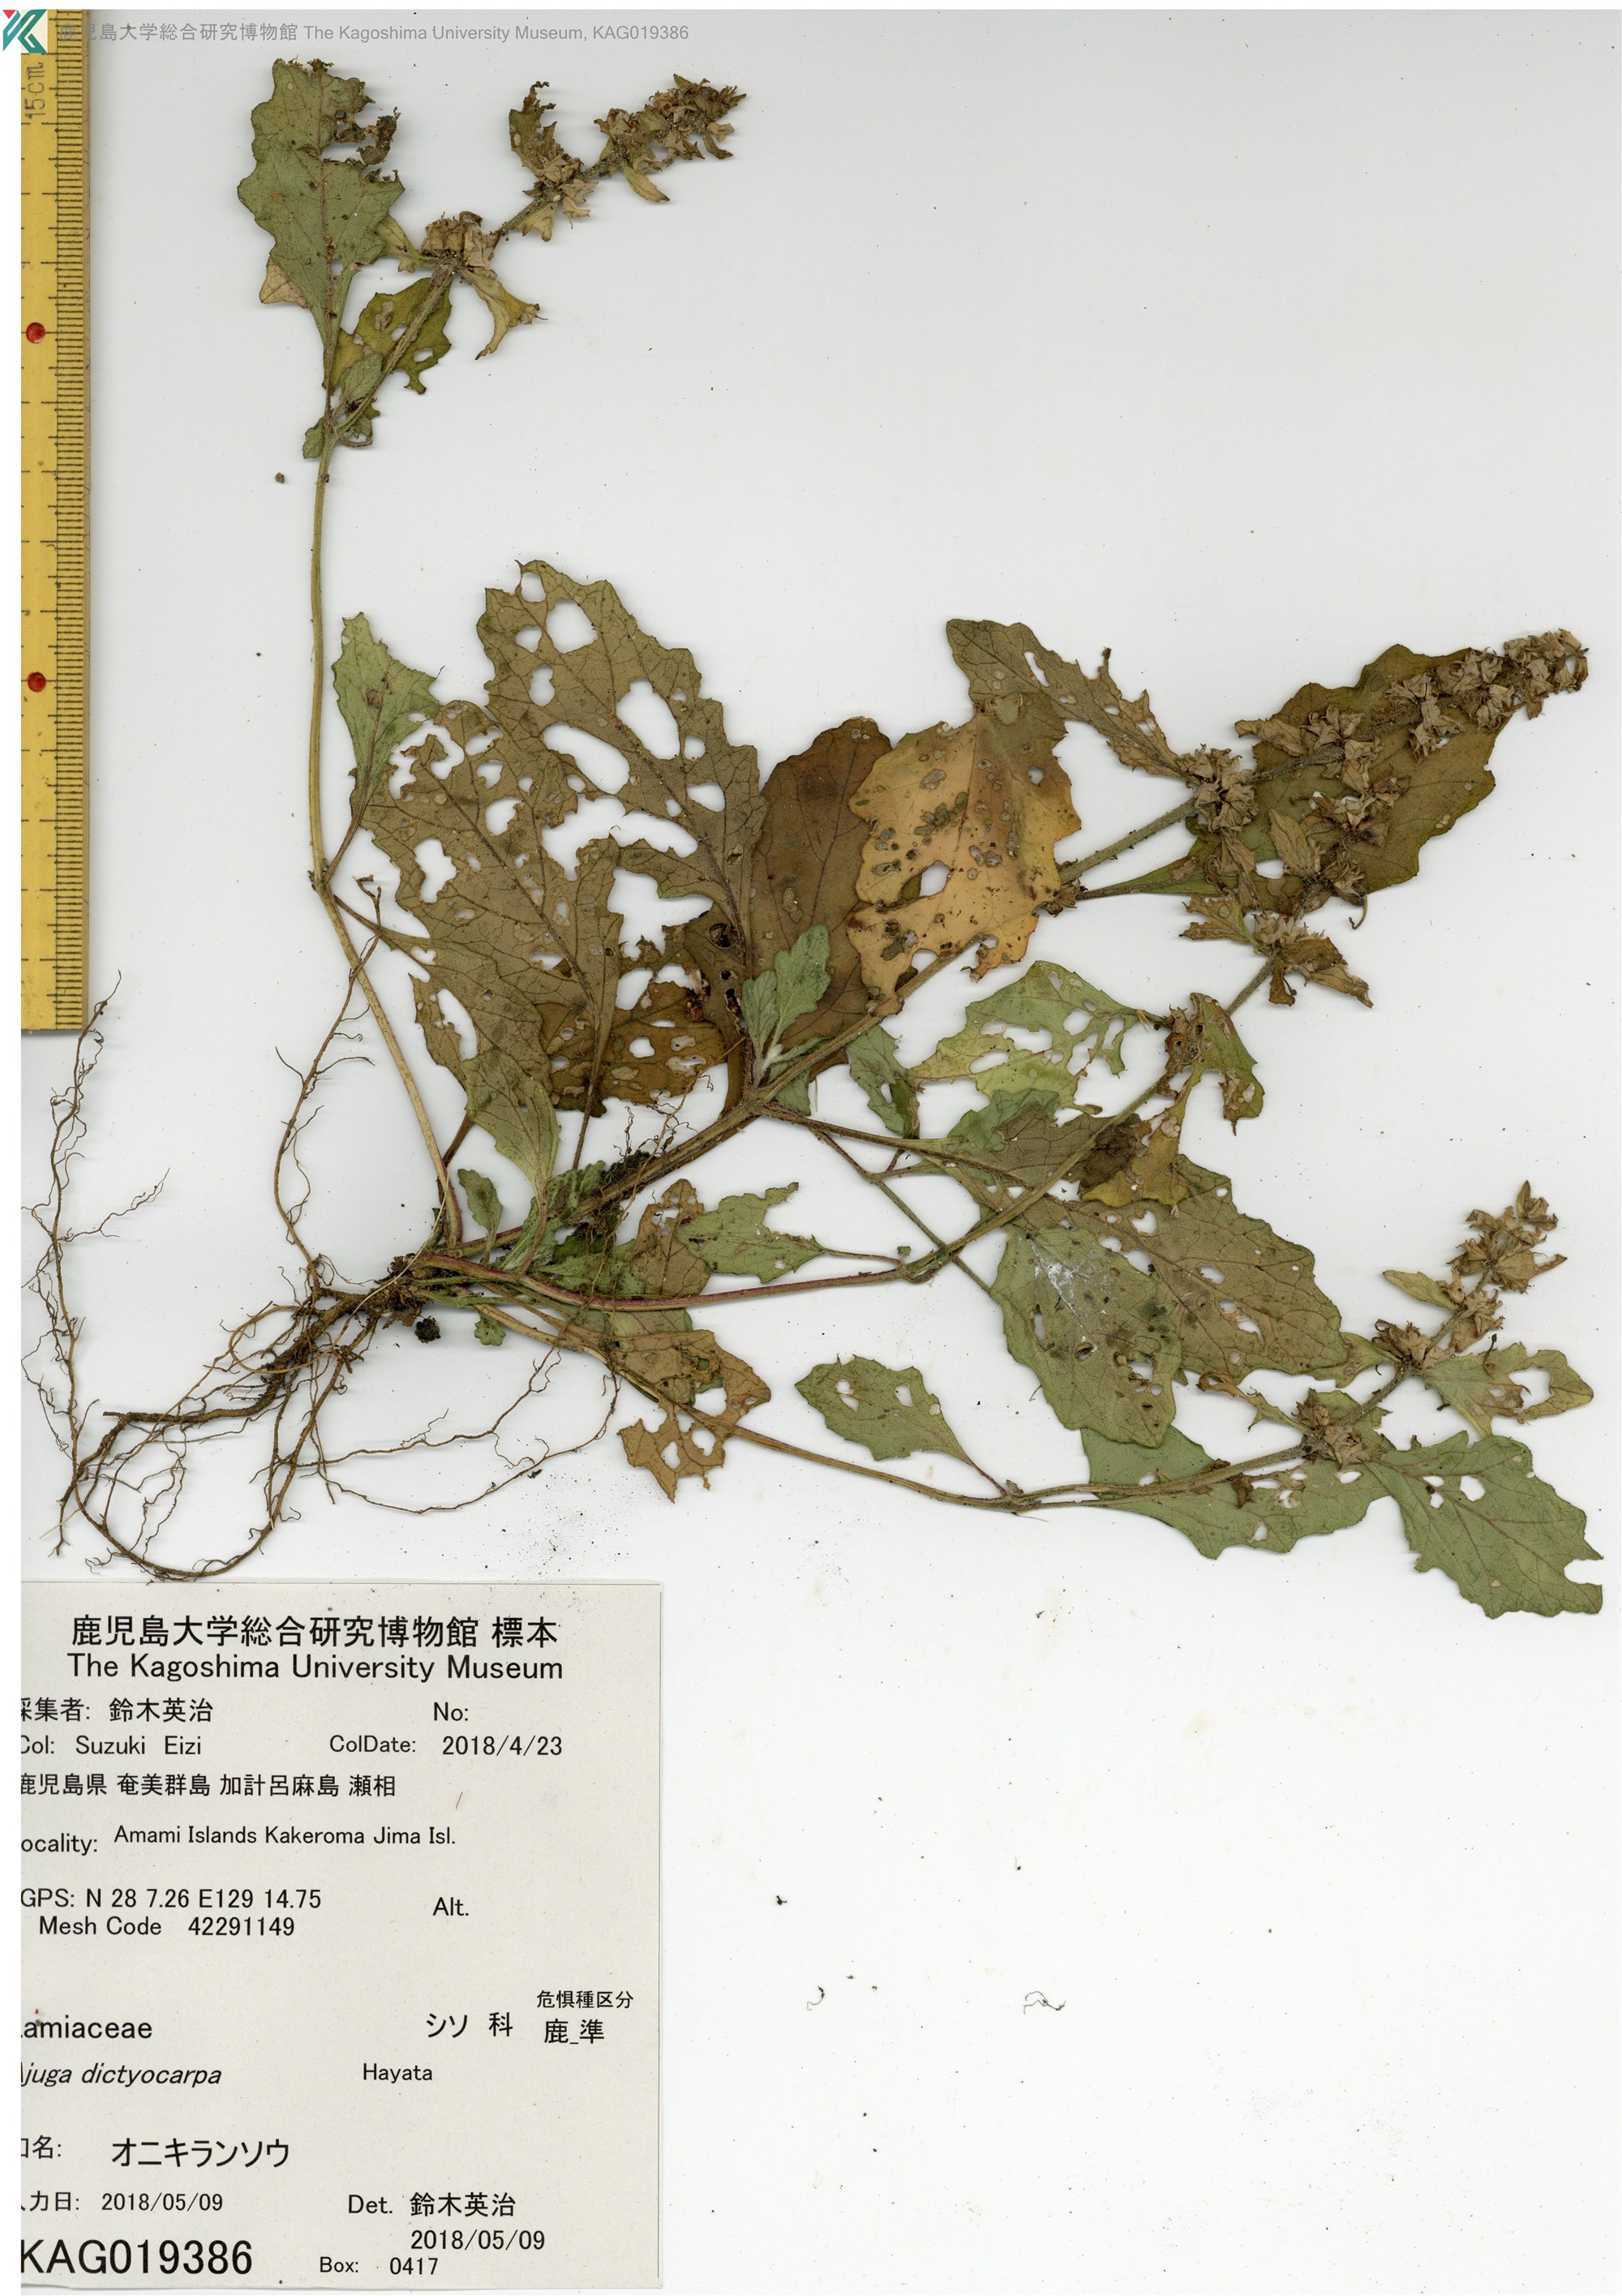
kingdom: Plantae
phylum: Tracheophyta
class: Magnoliopsida
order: Lamiales
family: Lamiaceae
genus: Ajuga
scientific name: Ajuga dictyocarpa
